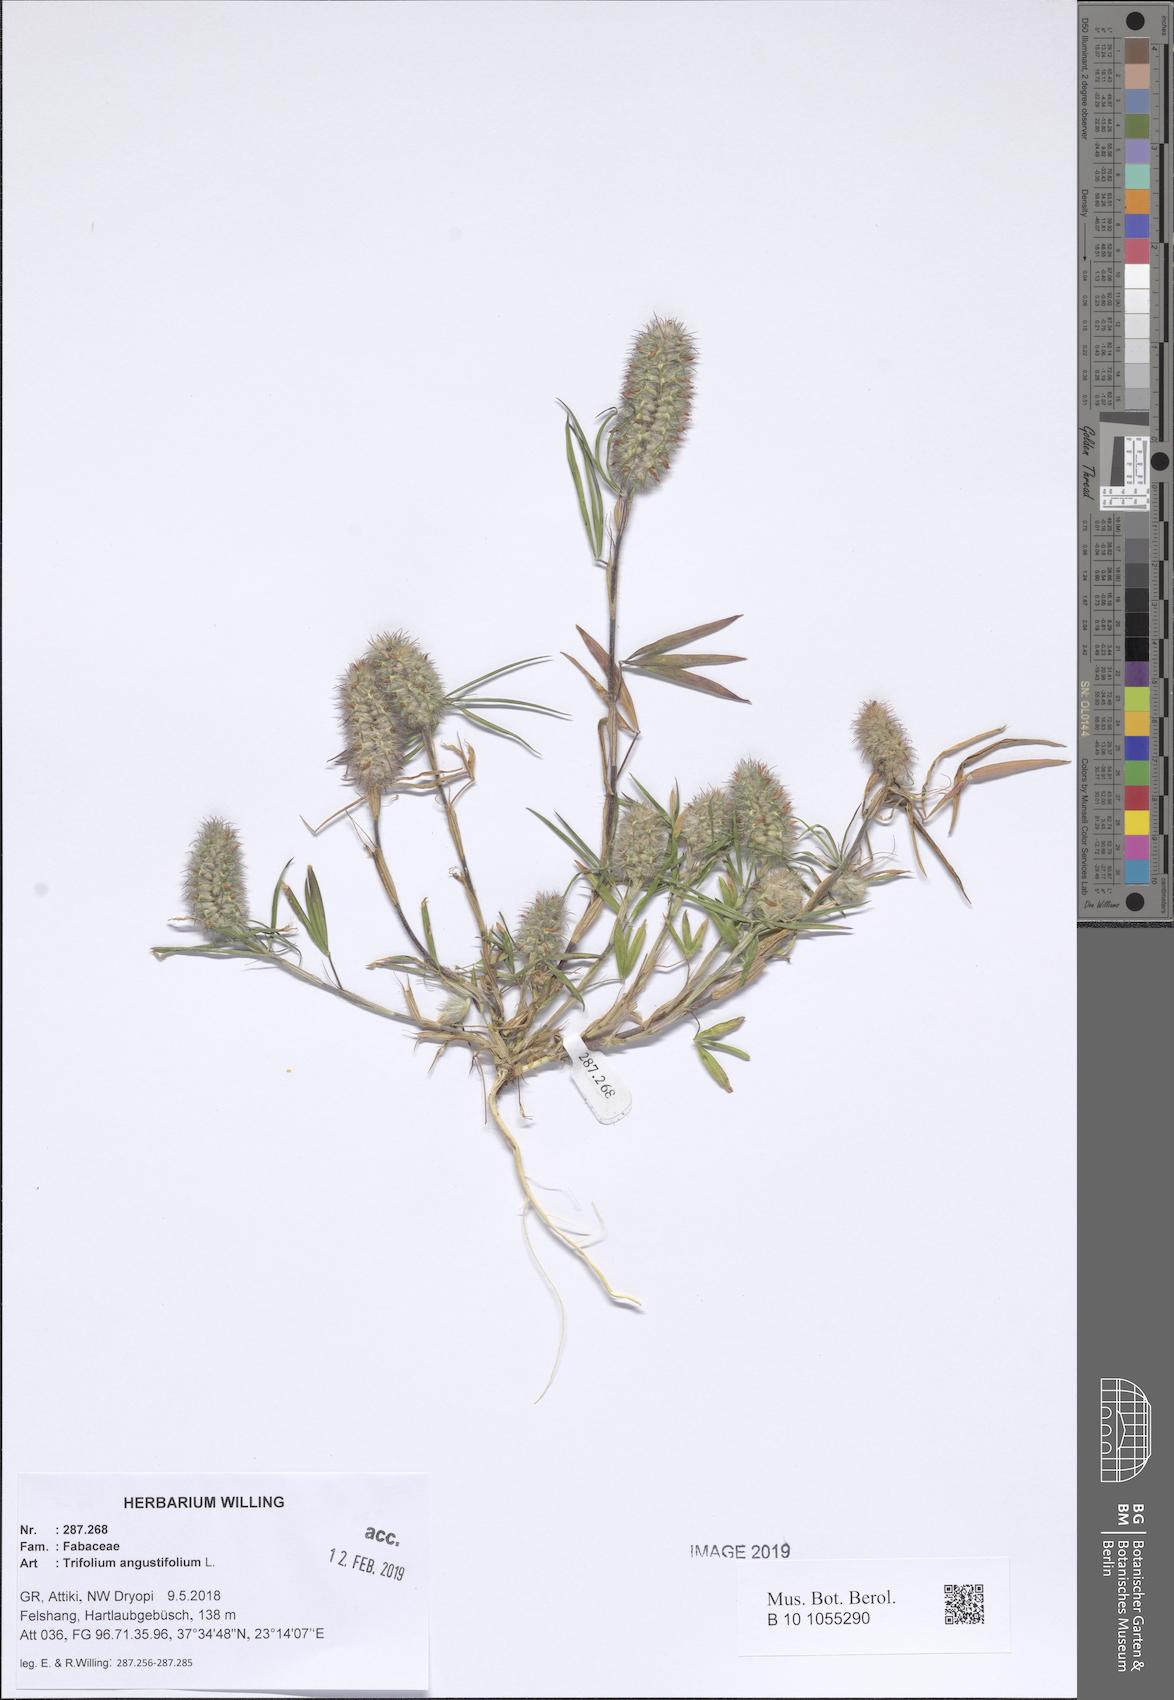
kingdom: Plantae
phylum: Tracheophyta
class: Magnoliopsida
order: Fabales
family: Fabaceae
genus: Trifolium
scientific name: Trifolium angustifolium
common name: Narrow clover
